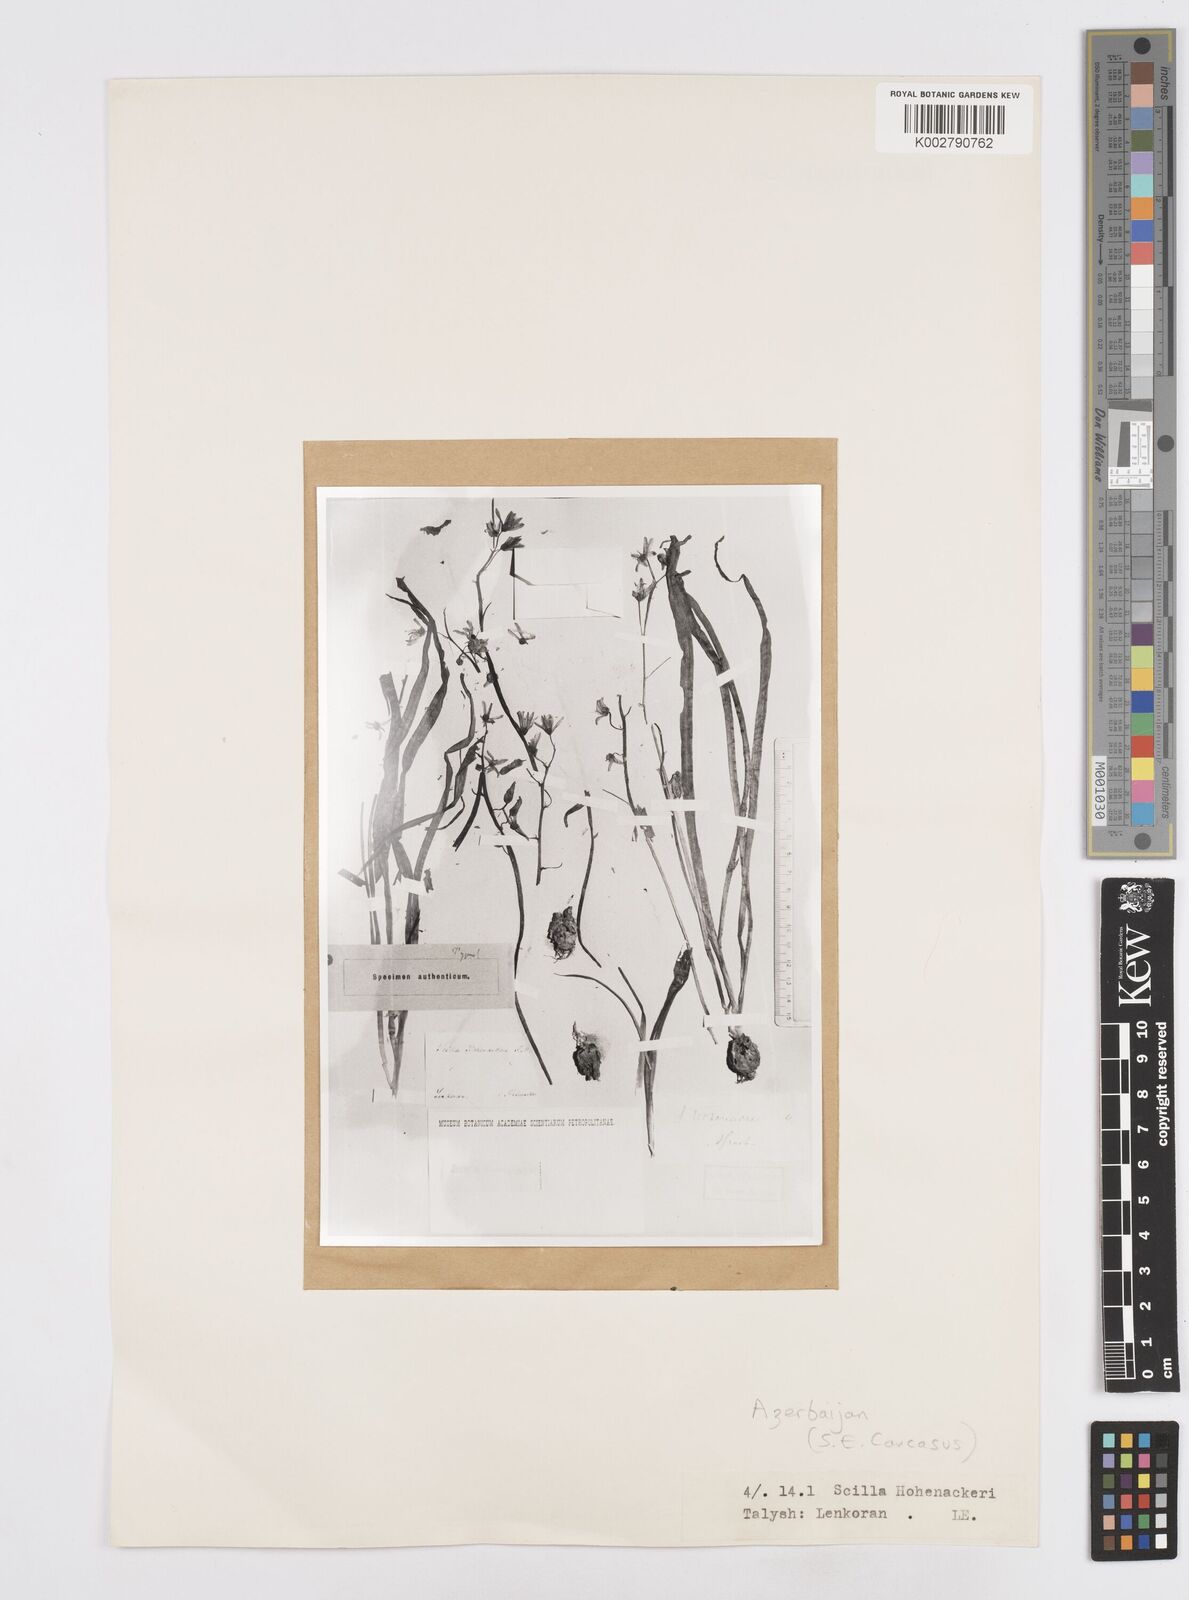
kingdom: Plantae
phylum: Tracheophyta
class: Liliopsida
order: Asparagales
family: Asparagaceae
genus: Fessia
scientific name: Fessia hohenackeri
